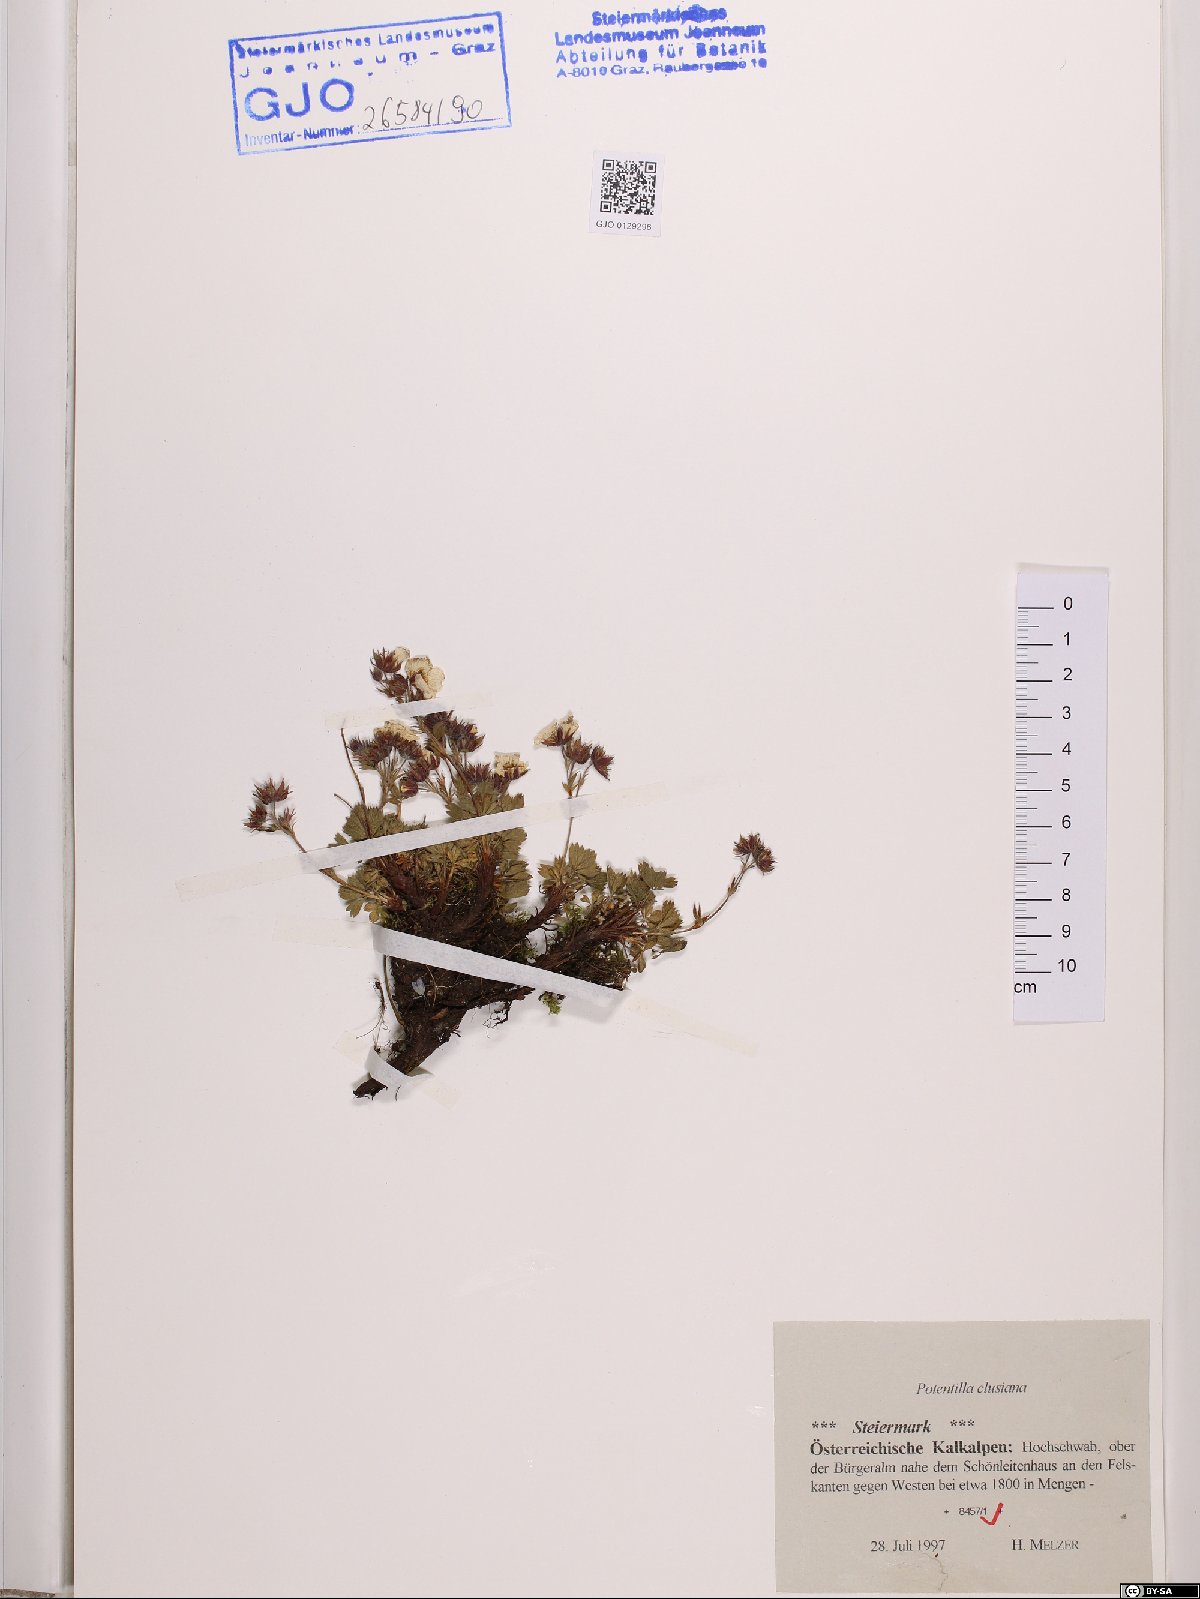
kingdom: Plantae
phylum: Tracheophyta
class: Magnoliopsida
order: Rosales
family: Rosaceae
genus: Potentilla
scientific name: Potentilla clusiana
